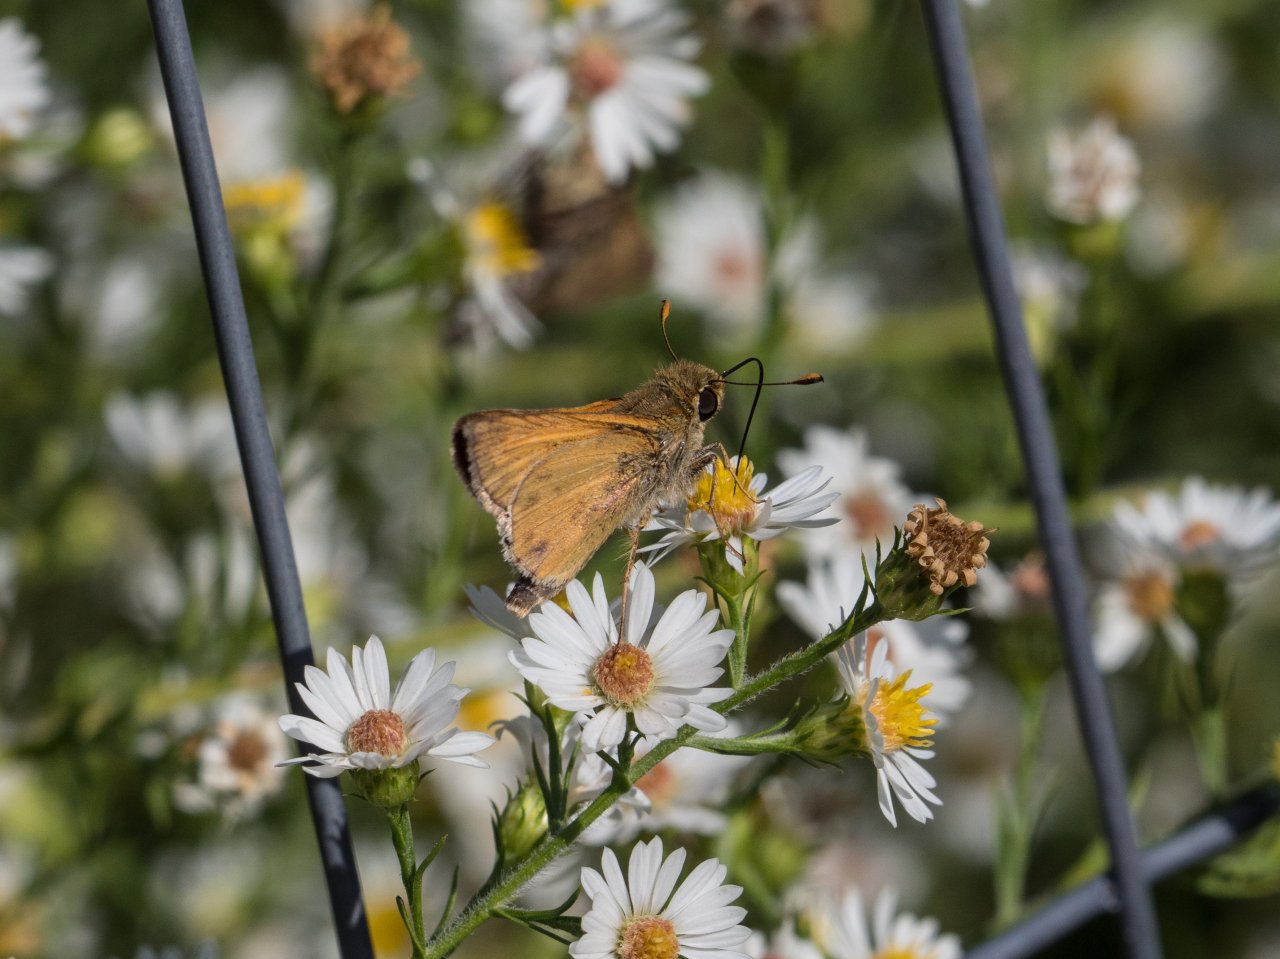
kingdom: Animalia
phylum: Arthropoda
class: Insecta
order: Lepidoptera
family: Hesperiidae
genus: Hylephila
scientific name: Hylephila phyleus
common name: Fiery Skipper
